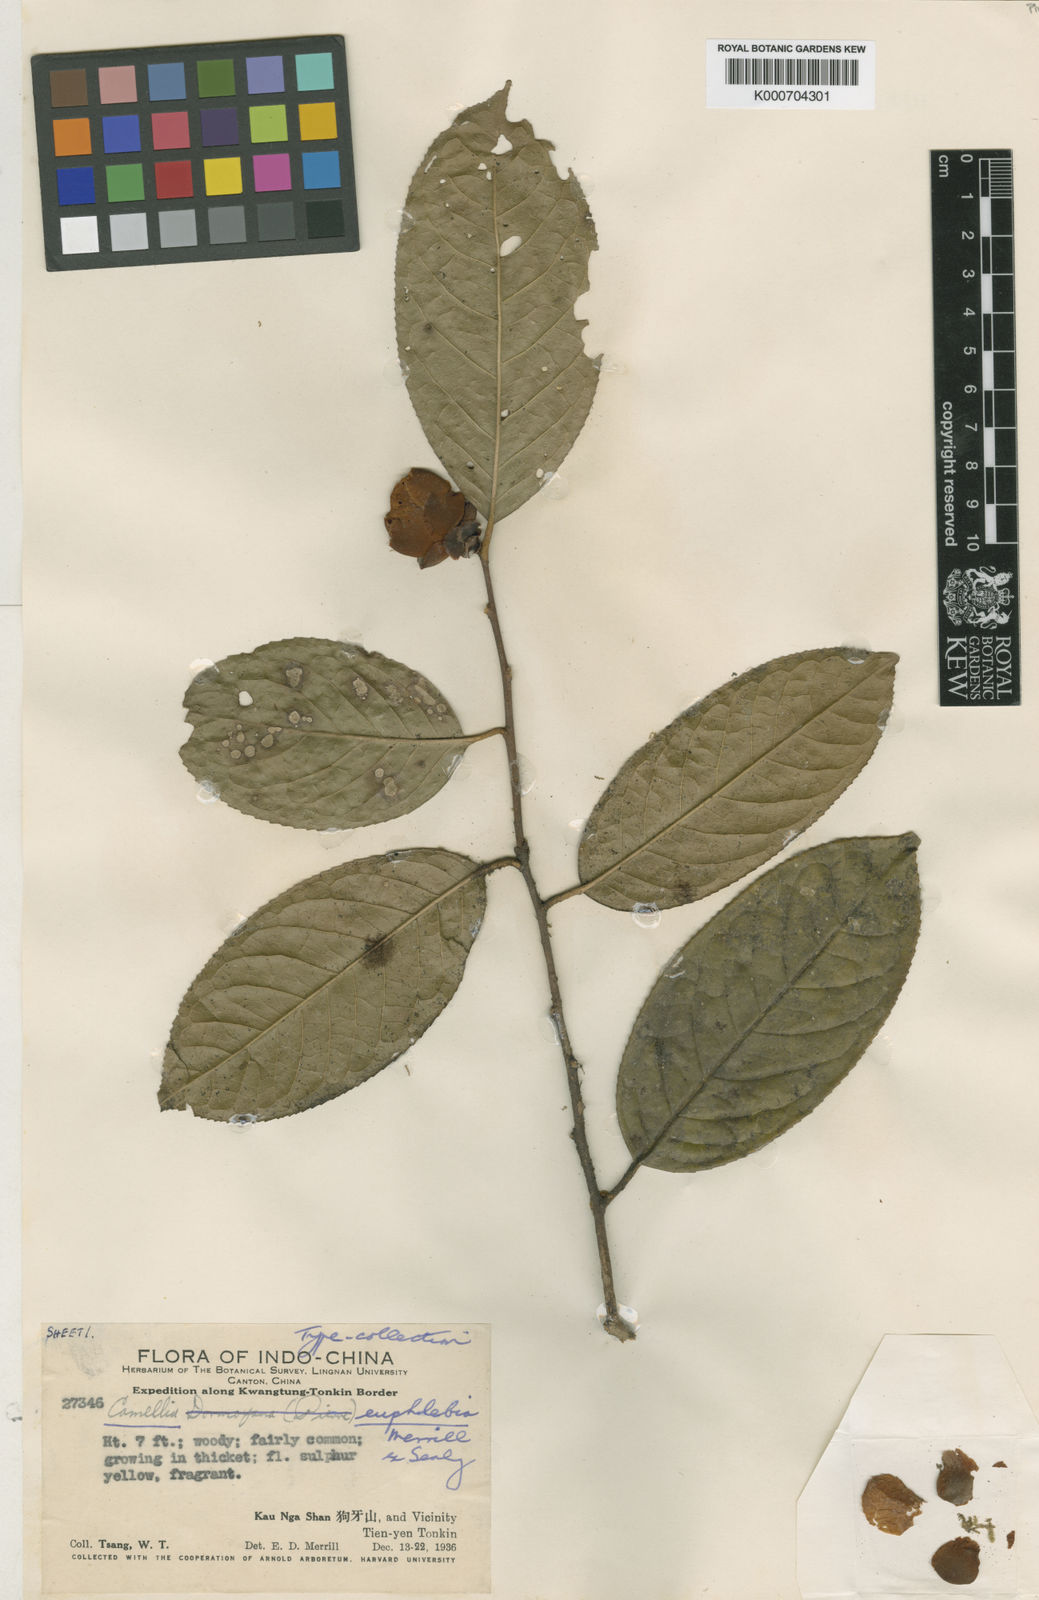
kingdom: Plantae
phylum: Tracheophyta
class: Magnoliopsida
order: Ericales
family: Theaceae
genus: Camellia
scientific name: Camellia euphlebia
